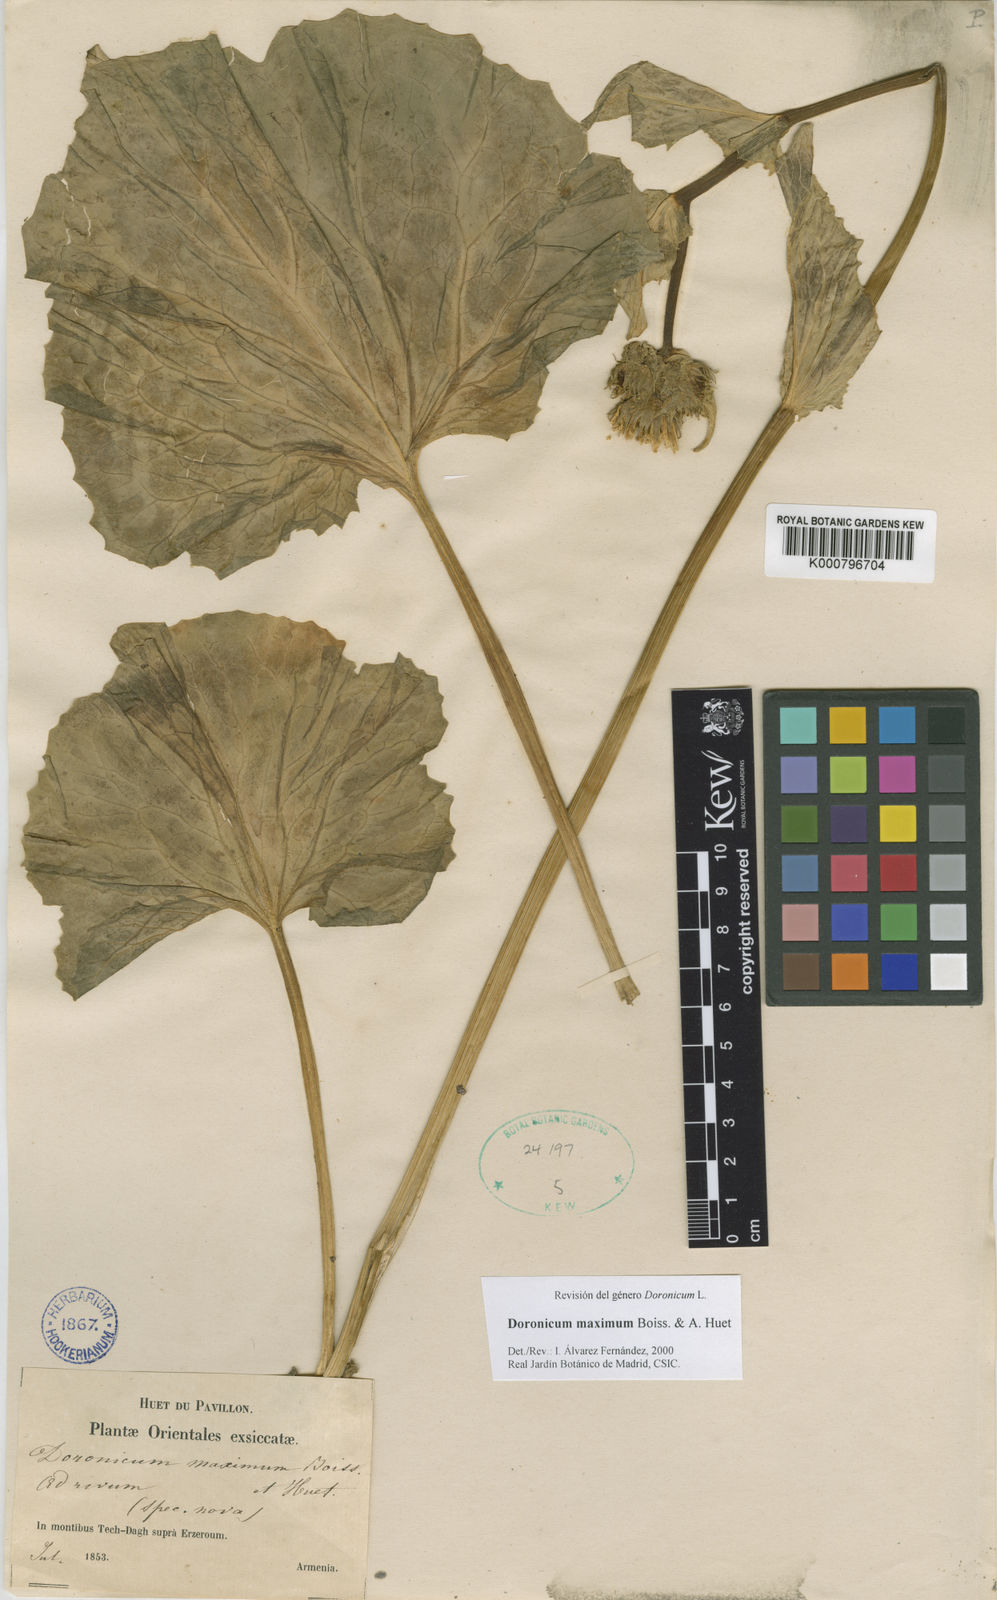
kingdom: Plantae
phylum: Tracheophyta
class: Magnoliopsida
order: Asterales
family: Asteraceae
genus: Doronicum
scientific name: Doronicum maximum
